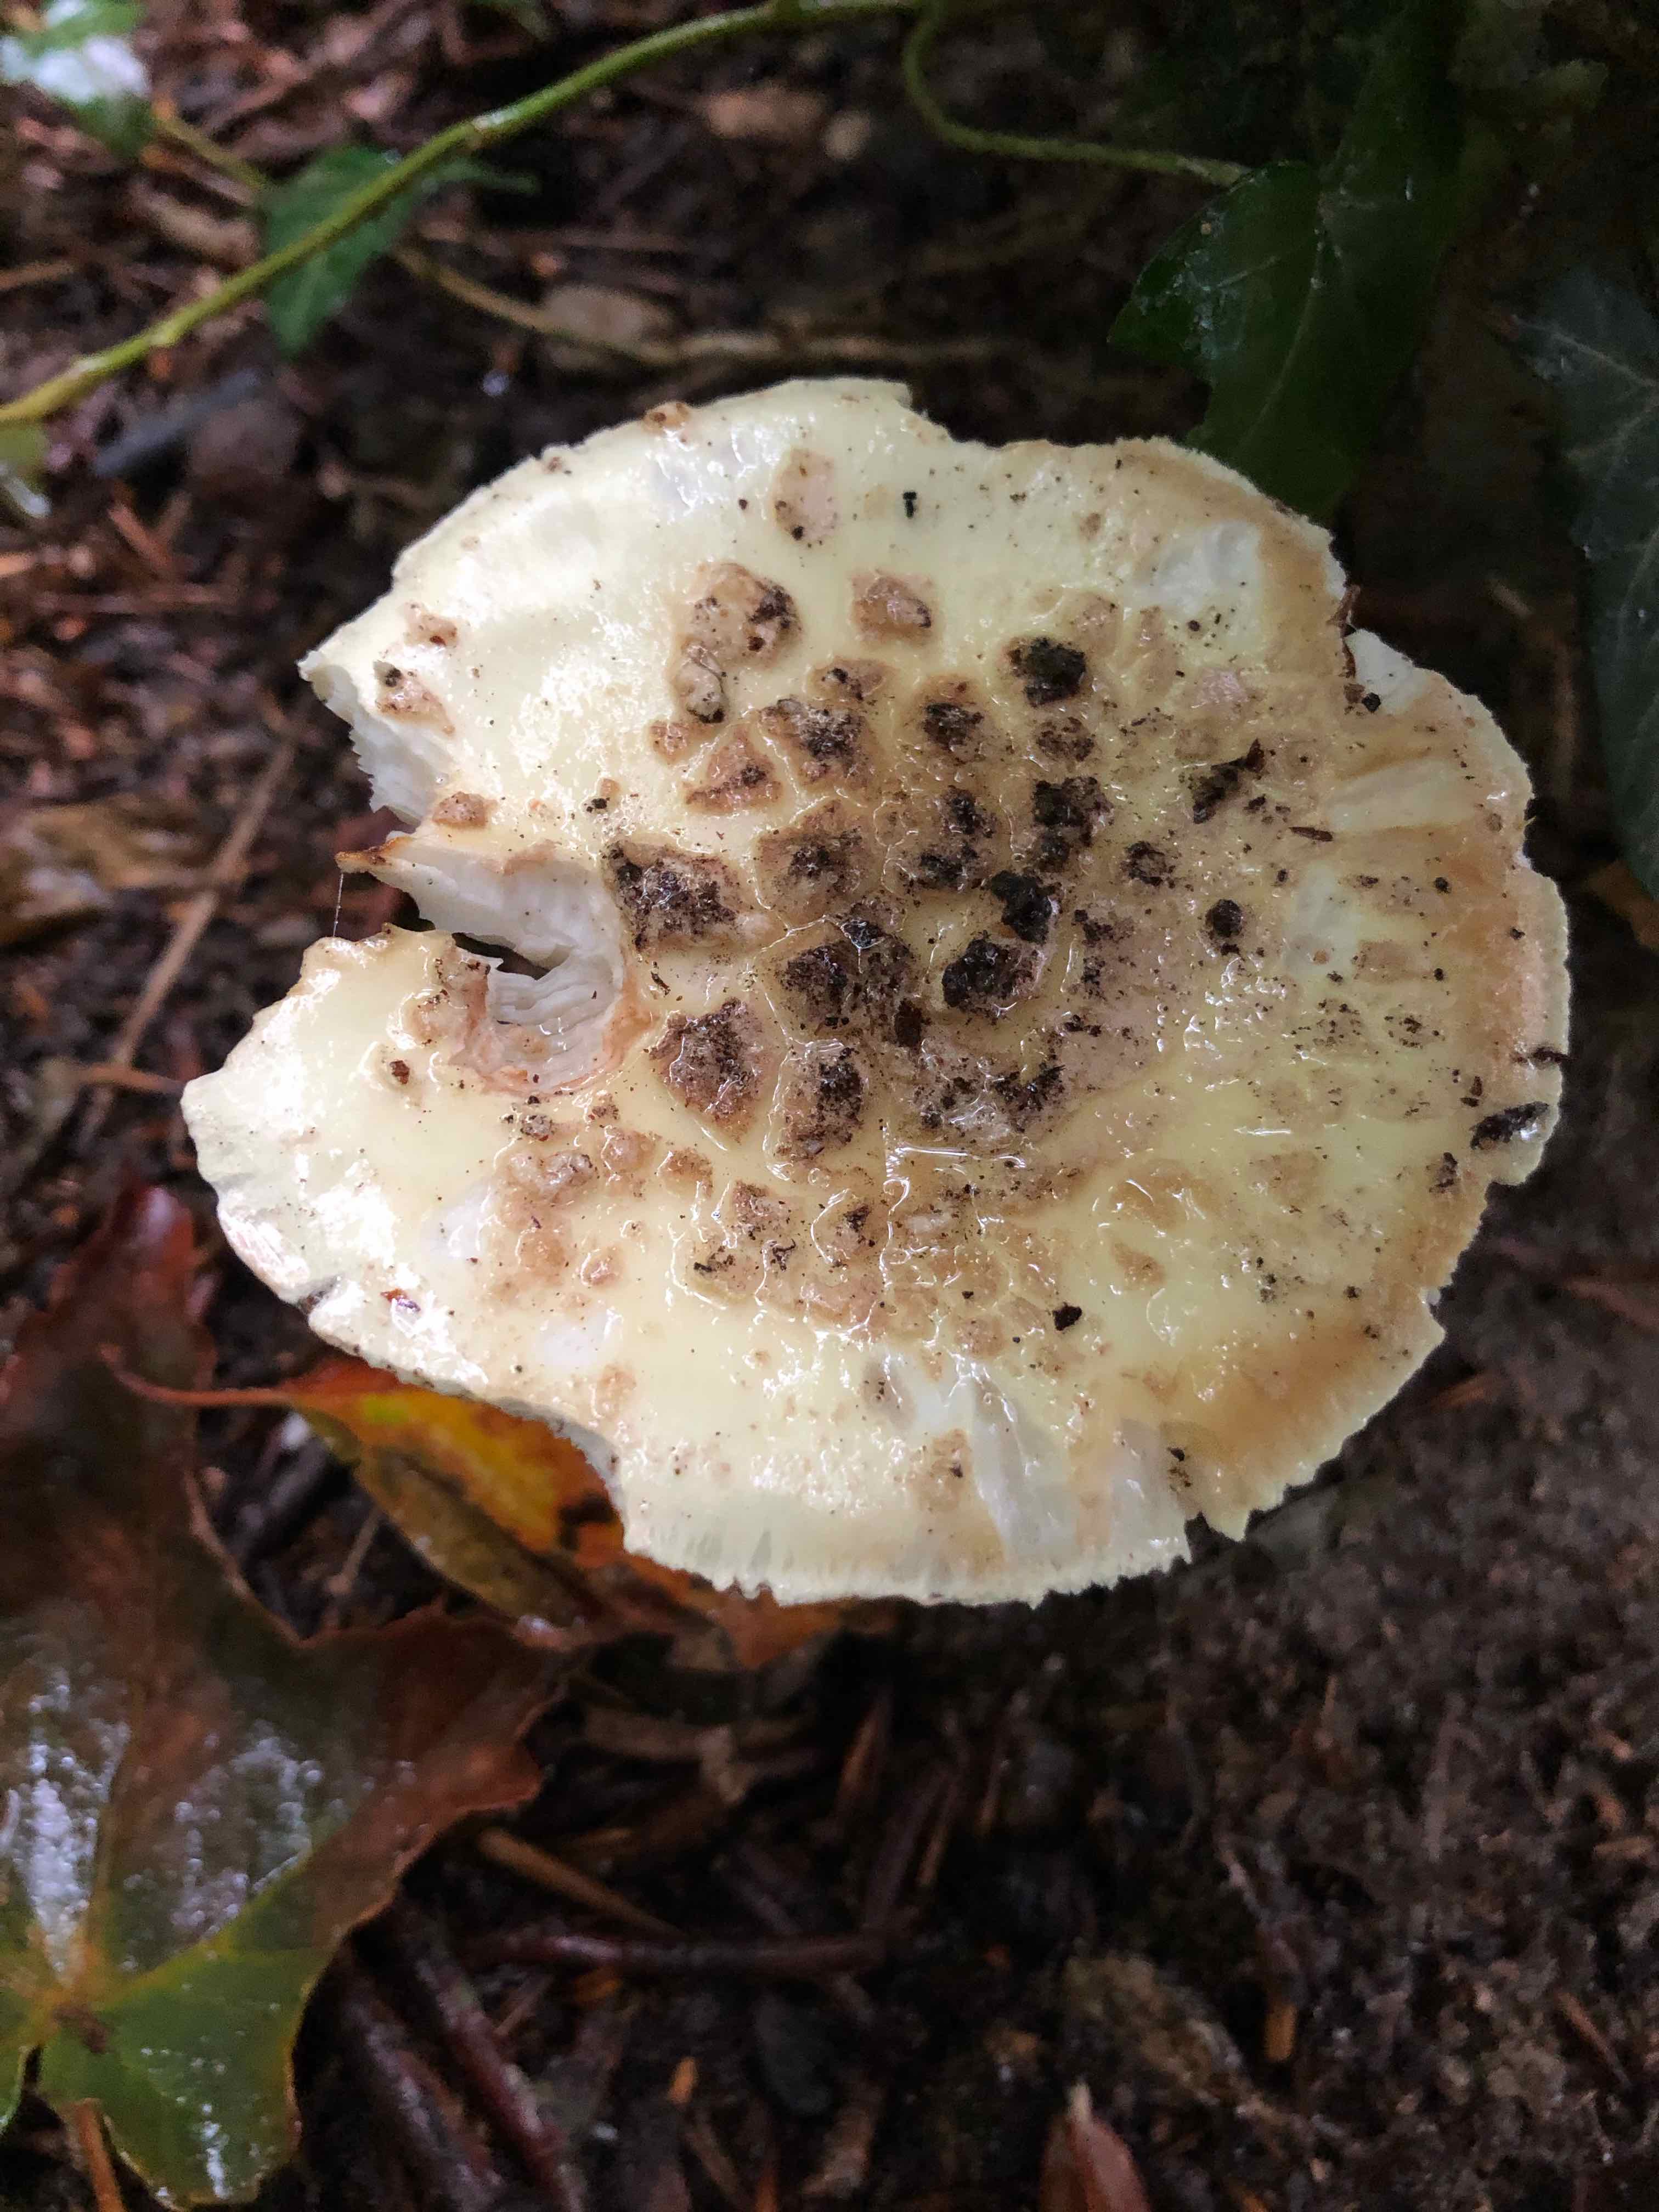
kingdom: Fungi
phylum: Basidiomycota
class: Agaricomycetes
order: Agaricales
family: Amanitaceae
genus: Amanita
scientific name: Amanita citrina
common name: kugleknoldet fluesvamp
